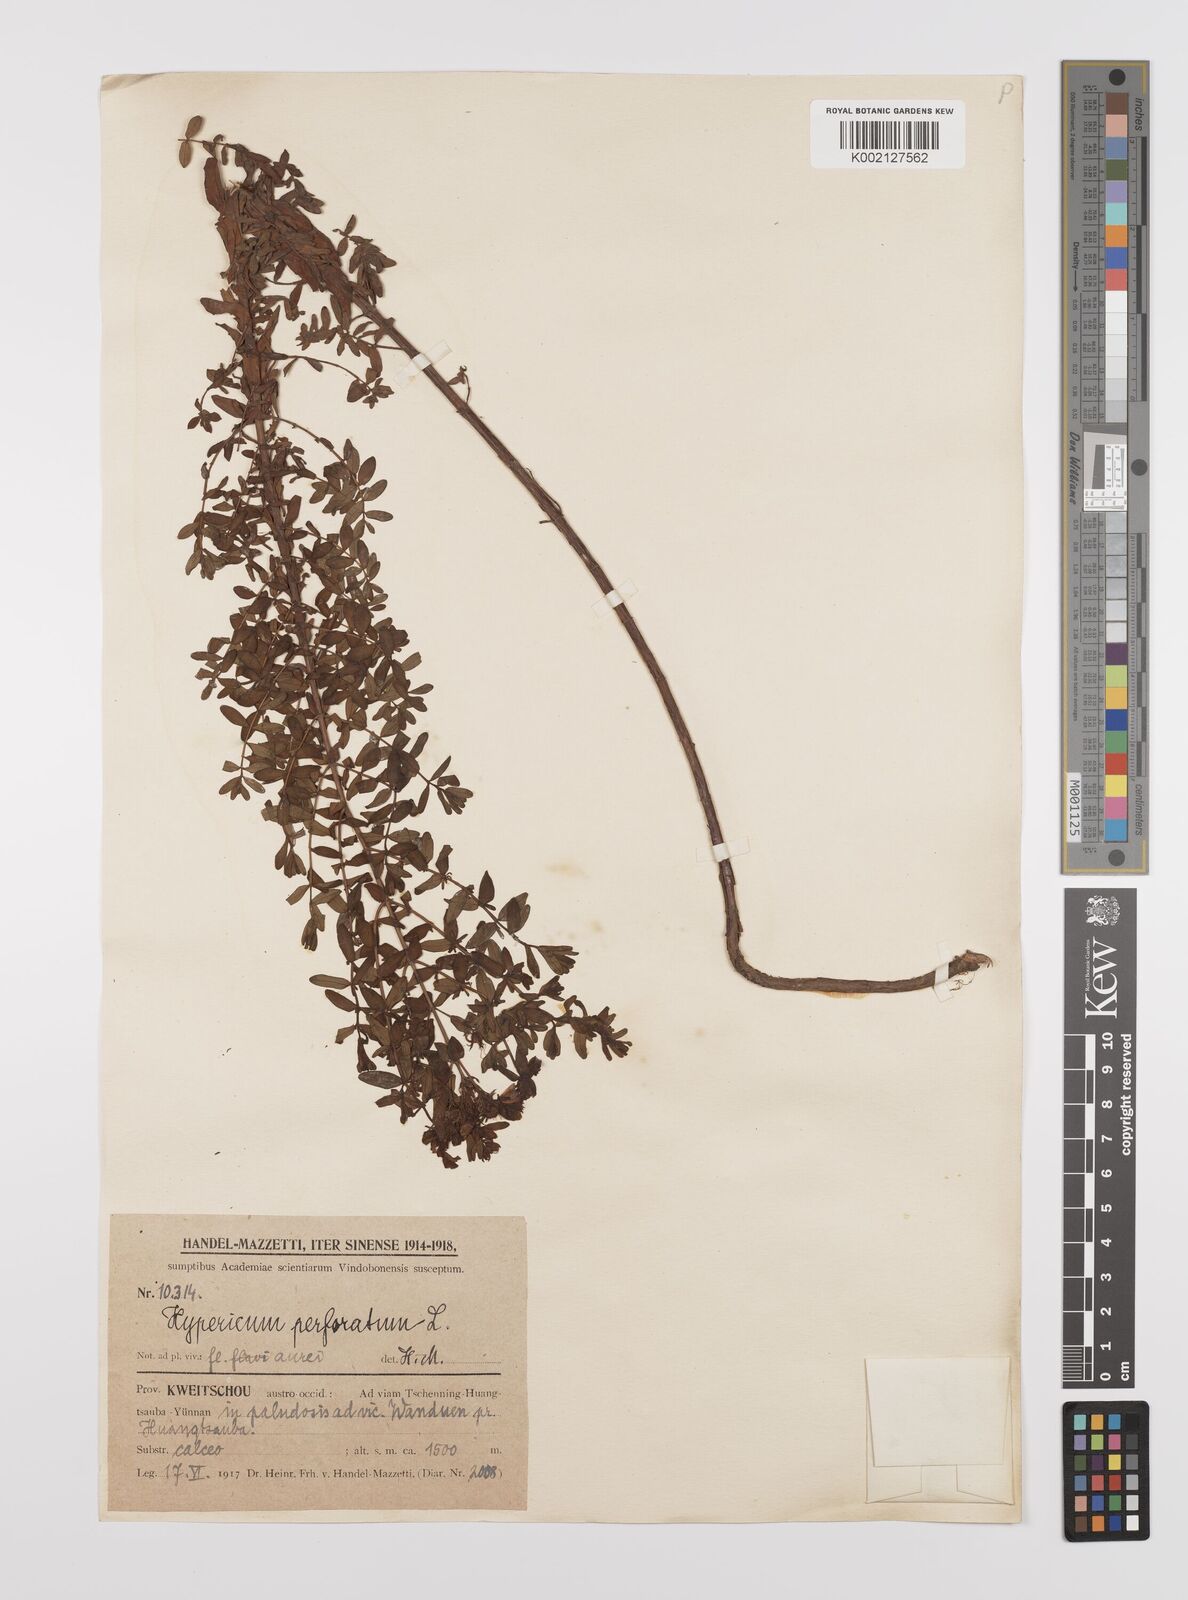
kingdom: Plantae
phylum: Tracheophyta
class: Magnoliopsida
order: Malpighiales
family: Hypericaceae
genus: Hypericum
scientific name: Hypericum perforatum
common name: Common st. johnswort
